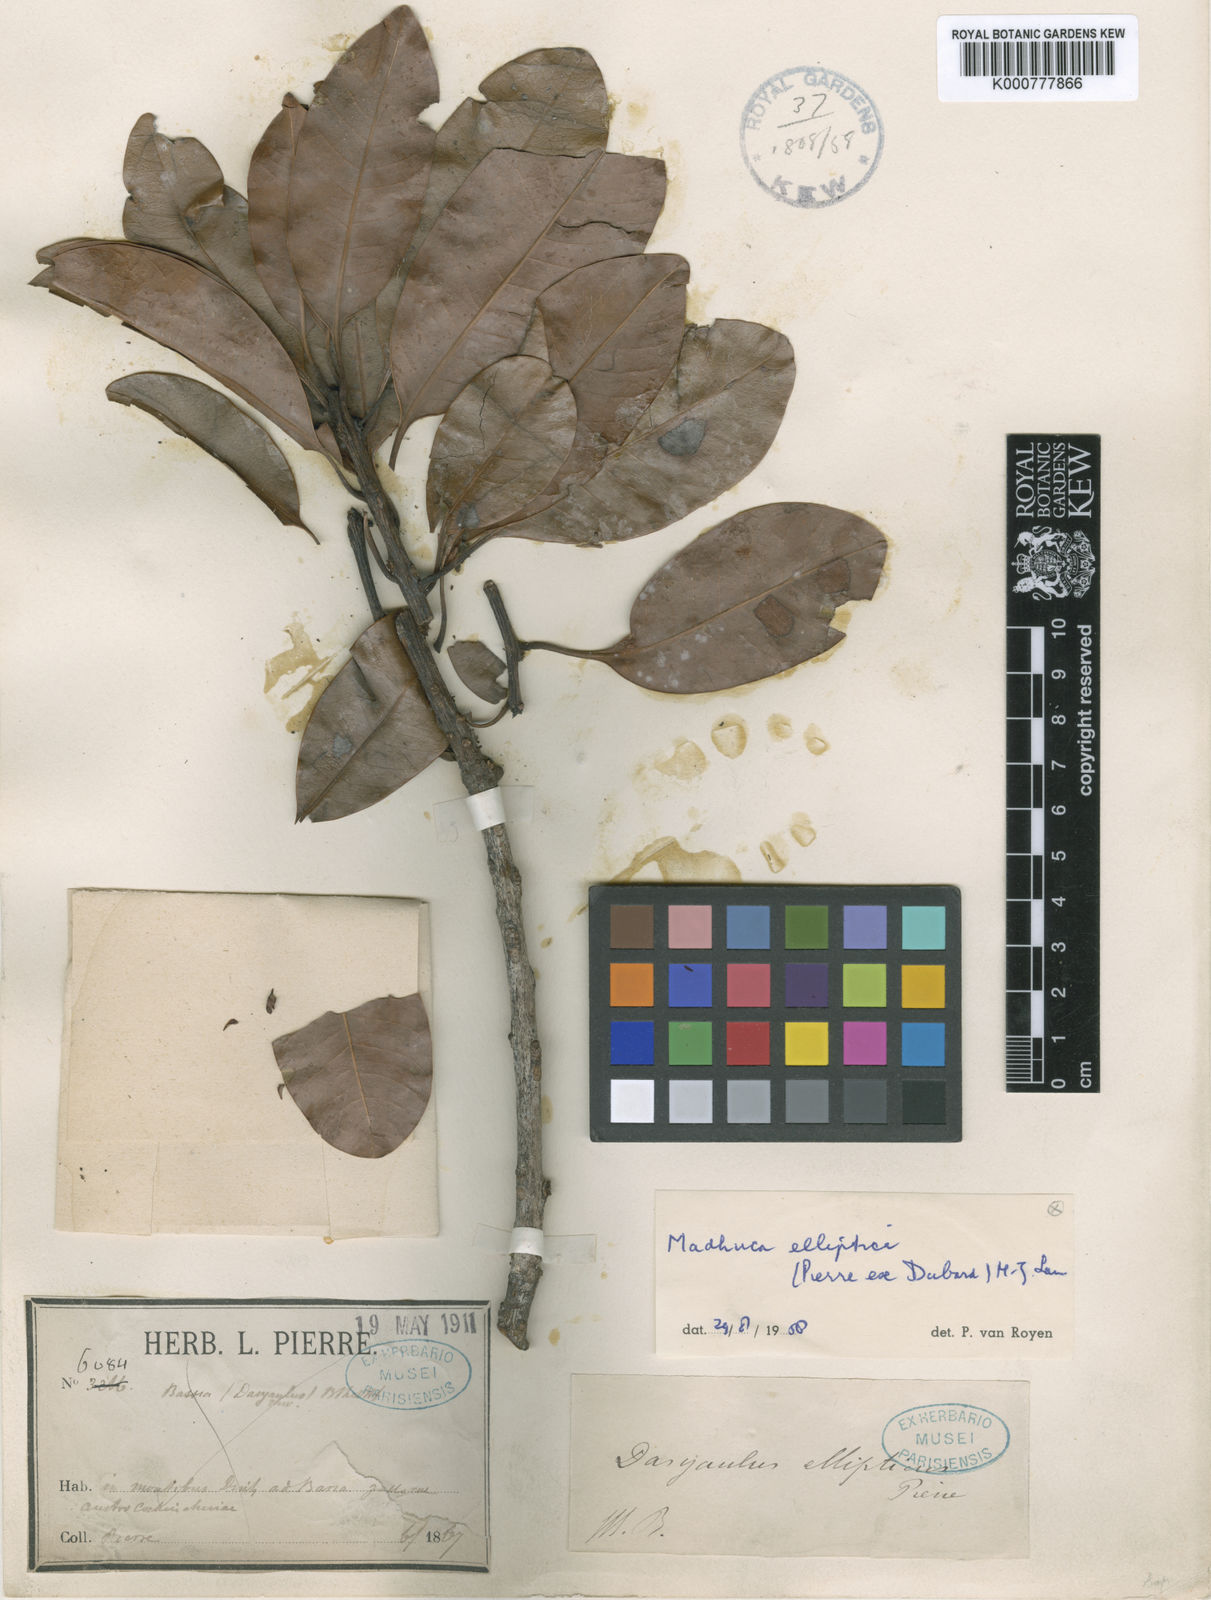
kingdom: Plantae
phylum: Tracheophyta
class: Magnoliopsida
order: Ericales
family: Sapotaceae
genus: Madhuca
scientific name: Madhuca elliptica
